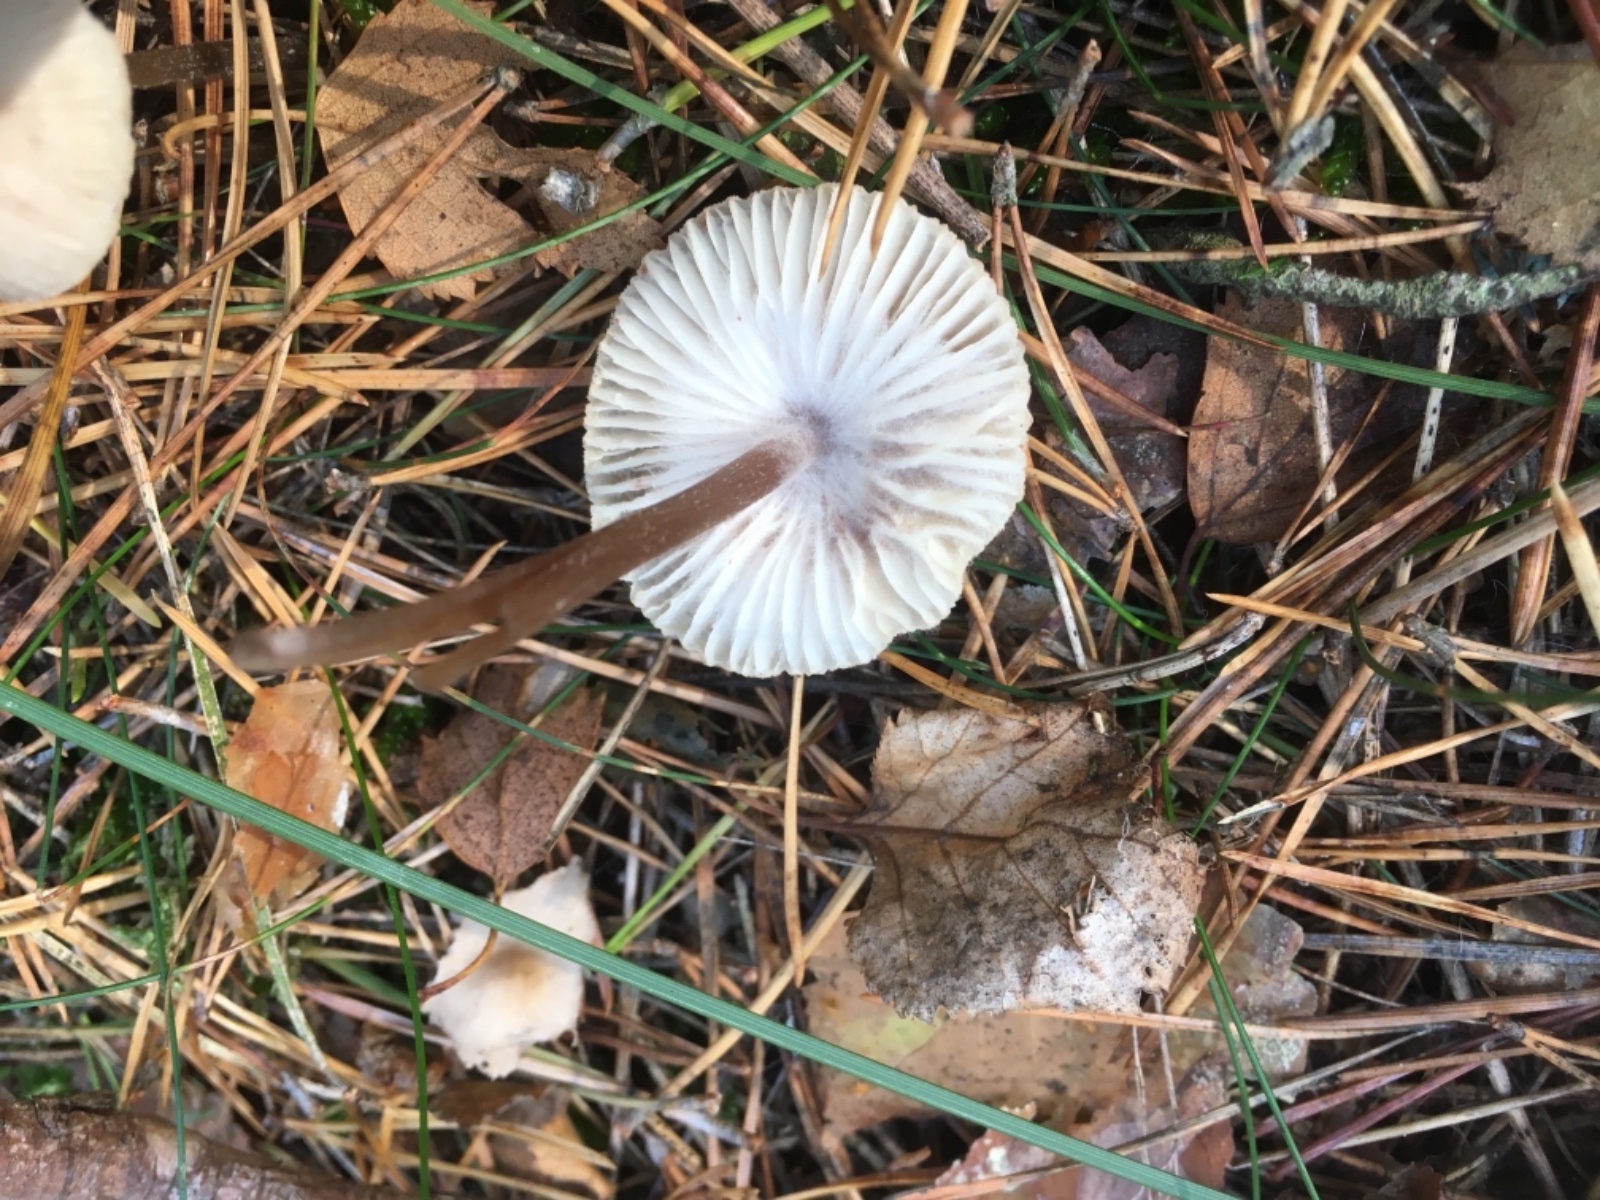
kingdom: Fungi
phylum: Basidiomycota
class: Agaricomycetes
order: Agaricales
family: Mycenaceae
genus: Mycena
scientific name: Mycena zephirus
